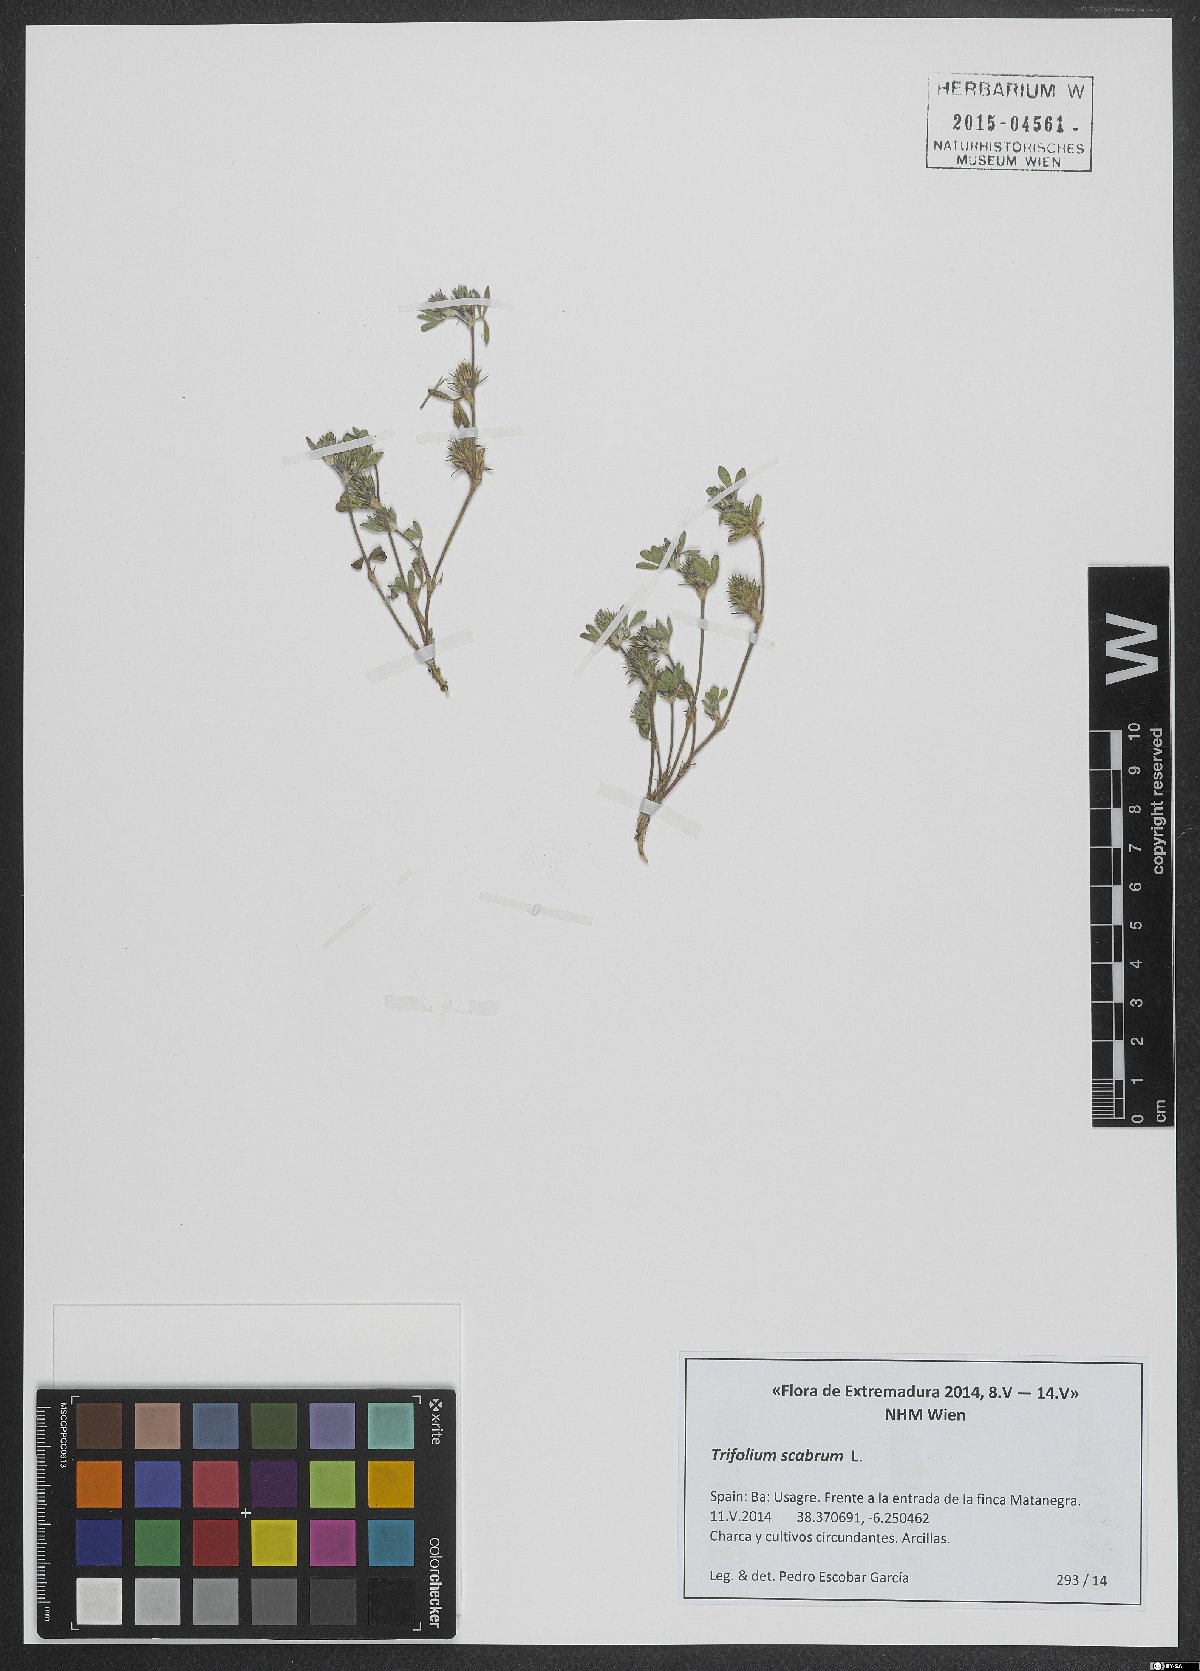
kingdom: Plantae
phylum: Tracheophyta
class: Magnoliopsida
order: Fabales
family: Fabaceae
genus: Trifolium
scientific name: Trifolium scabrum
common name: Rough clover
